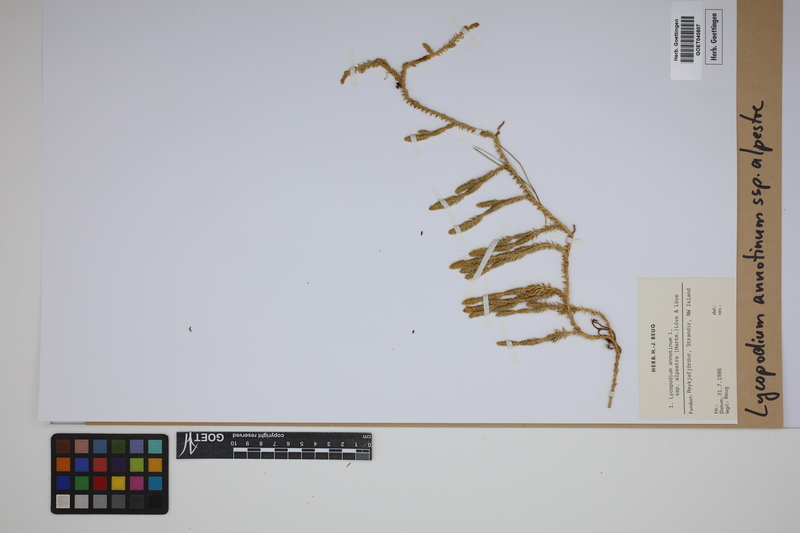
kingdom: Plantae
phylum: Tracheophyta
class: Lycopodiopsida
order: Lycopodiales
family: Lycopodiaceae
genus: Spinulum
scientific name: Spinulum annotinum
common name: Interrupted club-moss
